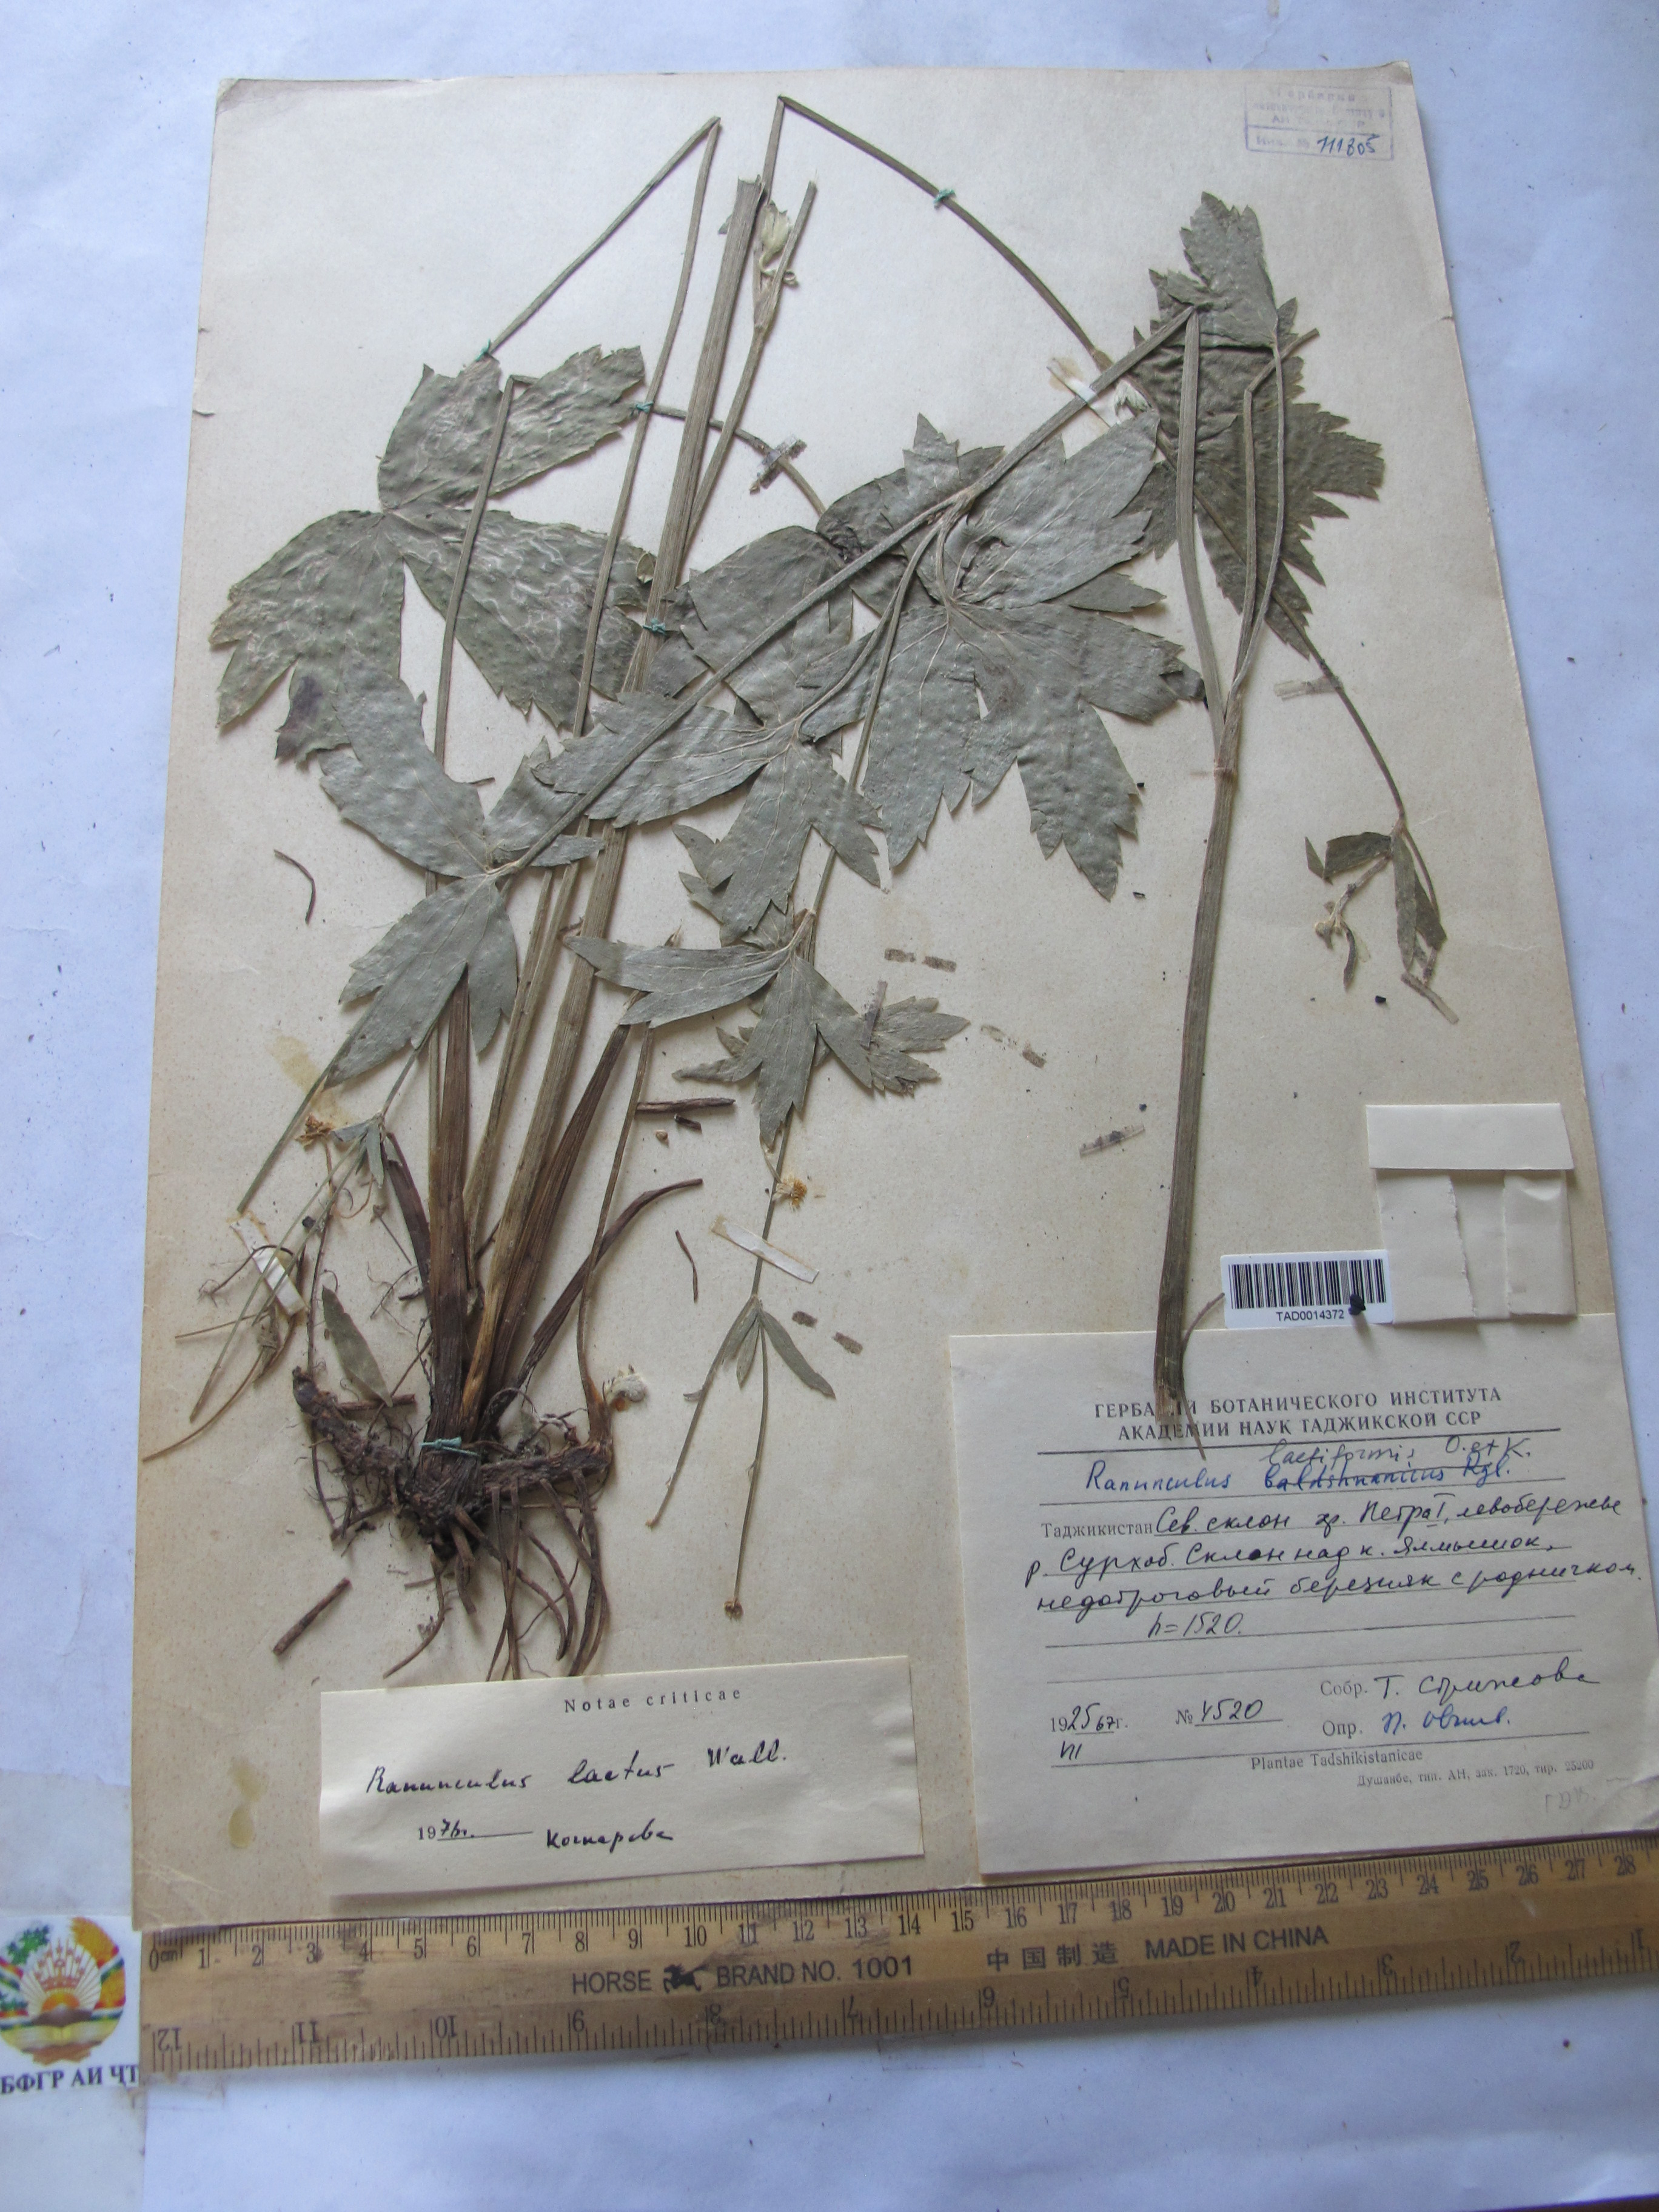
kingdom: Plantae
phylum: Tracheophyta
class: Magnoliopsida
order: Ranunculales
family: Ranunculaceae
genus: Ranunculus
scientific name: Ranunculus distans
